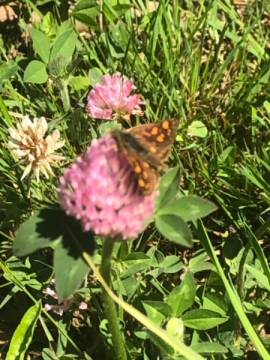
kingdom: Animalia
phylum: Arthropoda
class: Insecta
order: Lepidoptera
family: Hesperiidae
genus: Carterocephalus
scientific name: Carterocephalus palaemon
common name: Chequered Skipper
